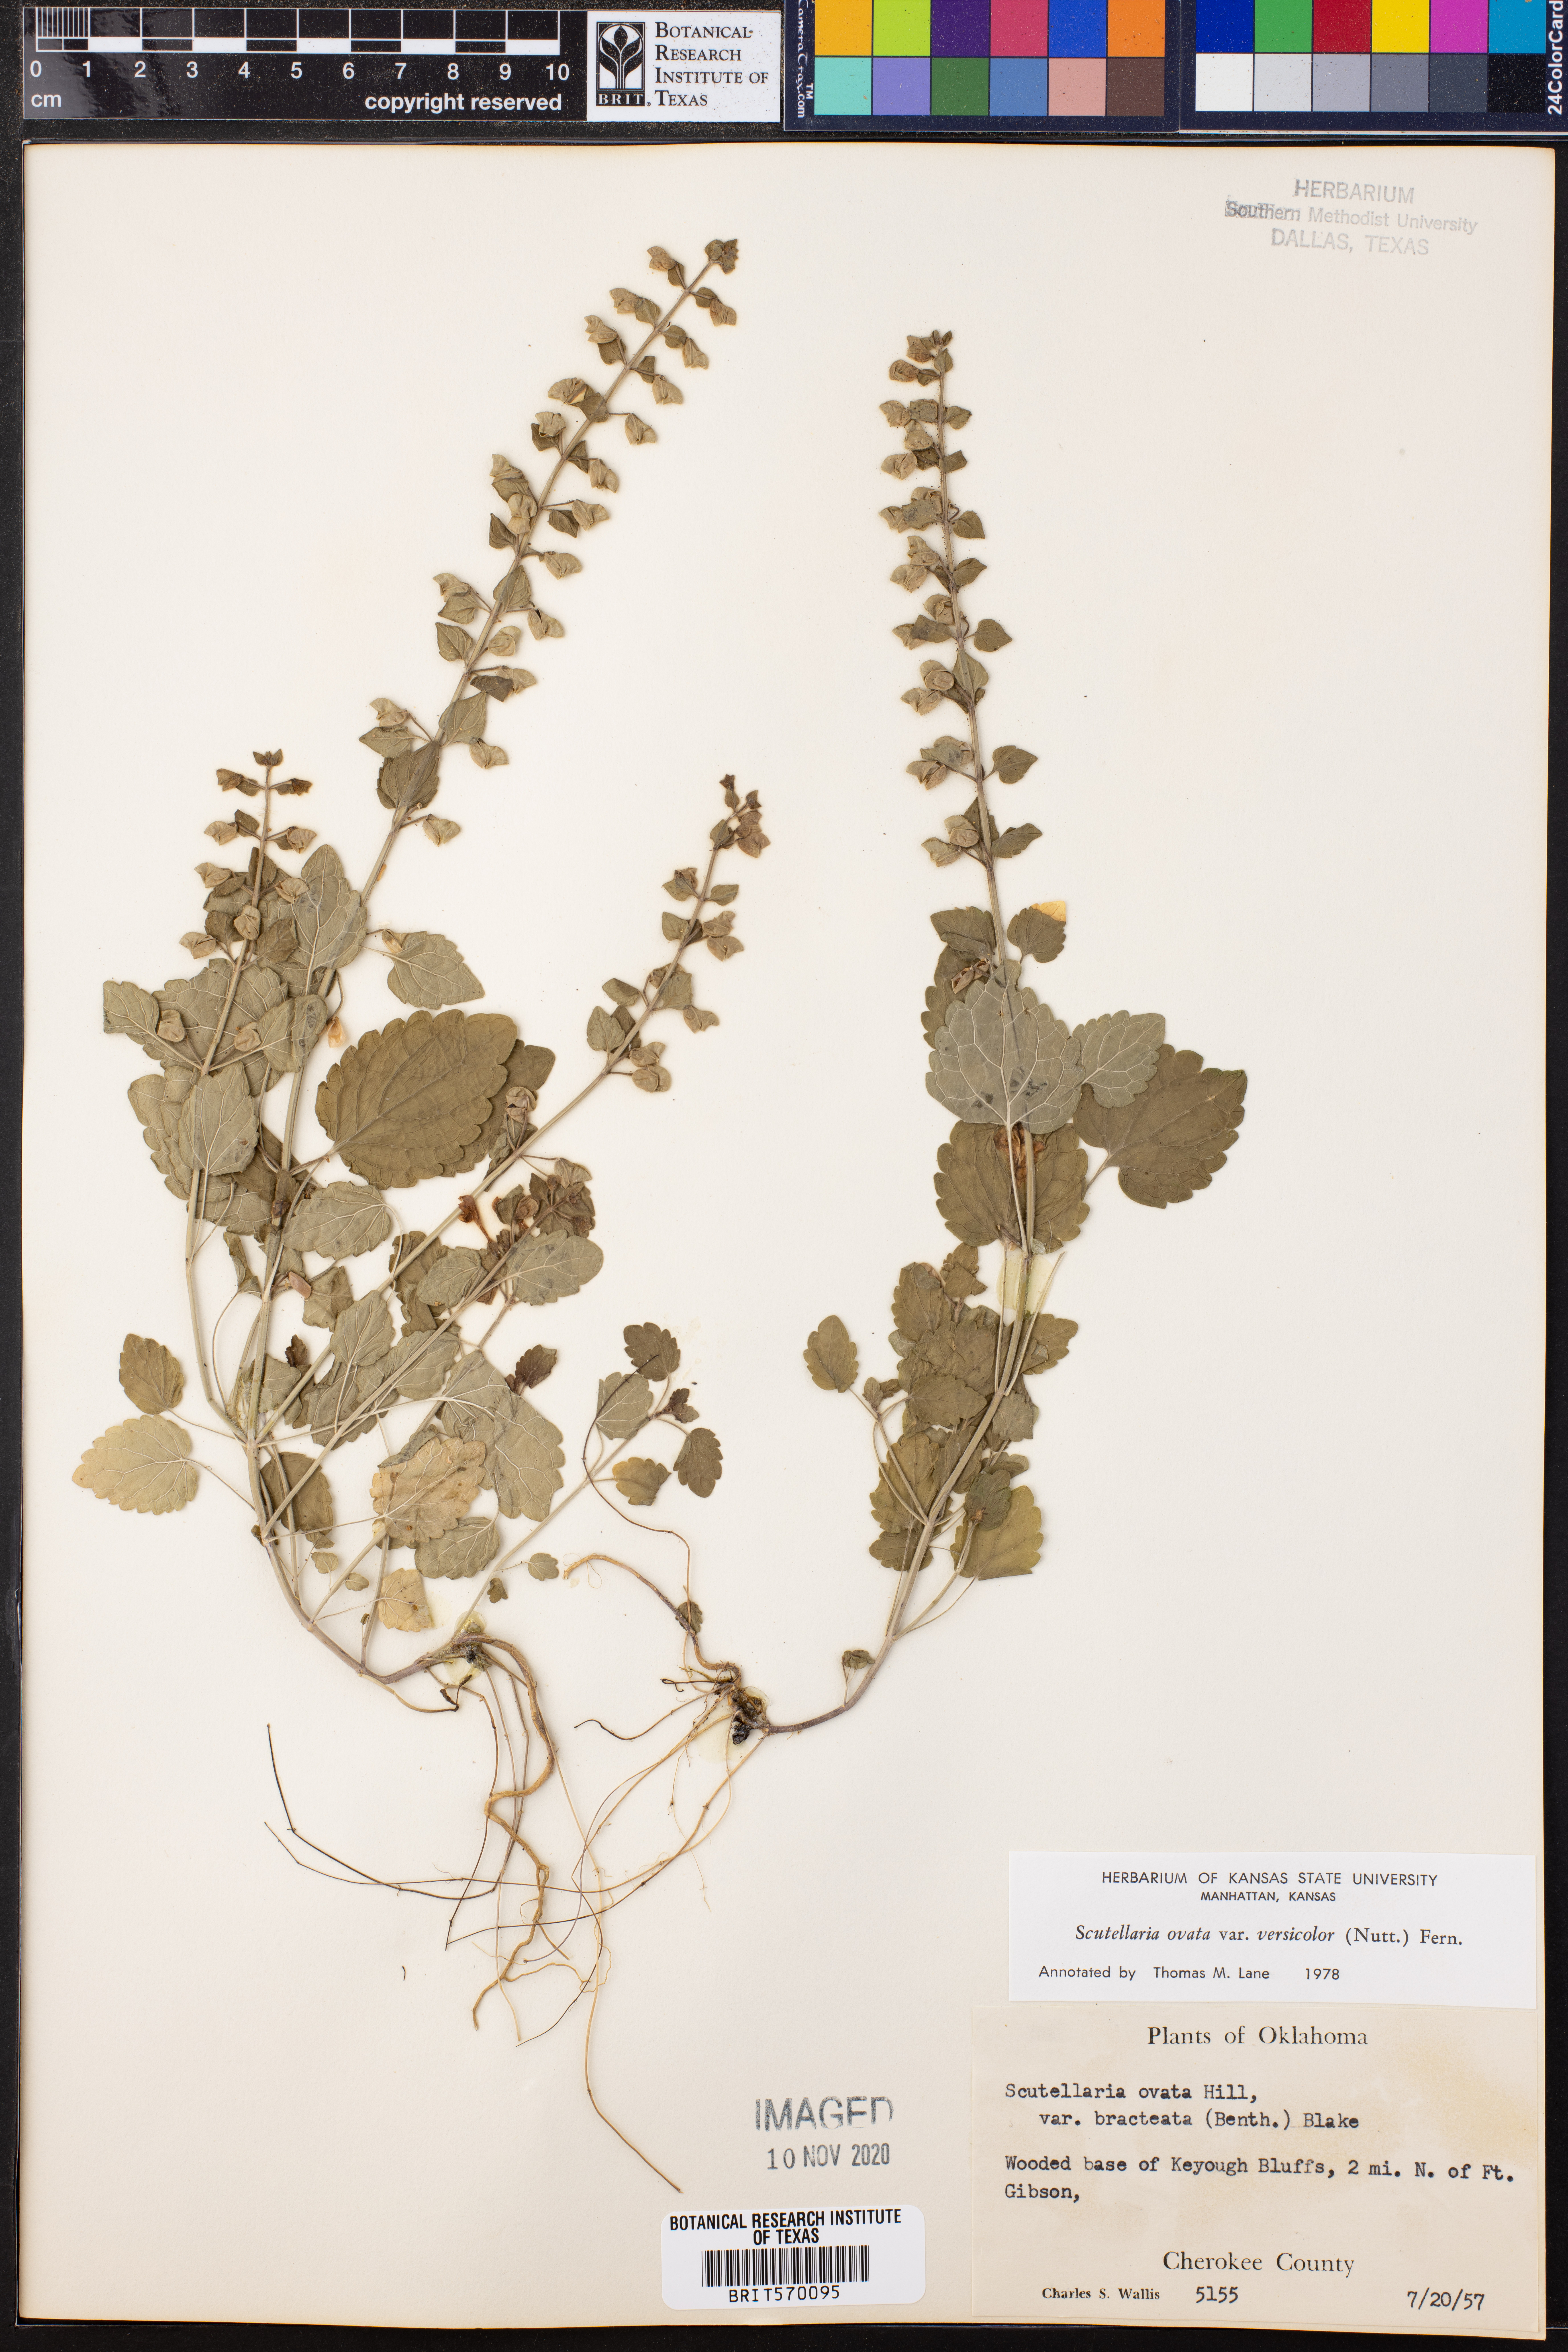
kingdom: Plantae
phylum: Tracheophyta
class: Magnoliopsida
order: Lamiales
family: Lamiaceae
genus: Scutellaria
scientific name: Scutellaria ovata
